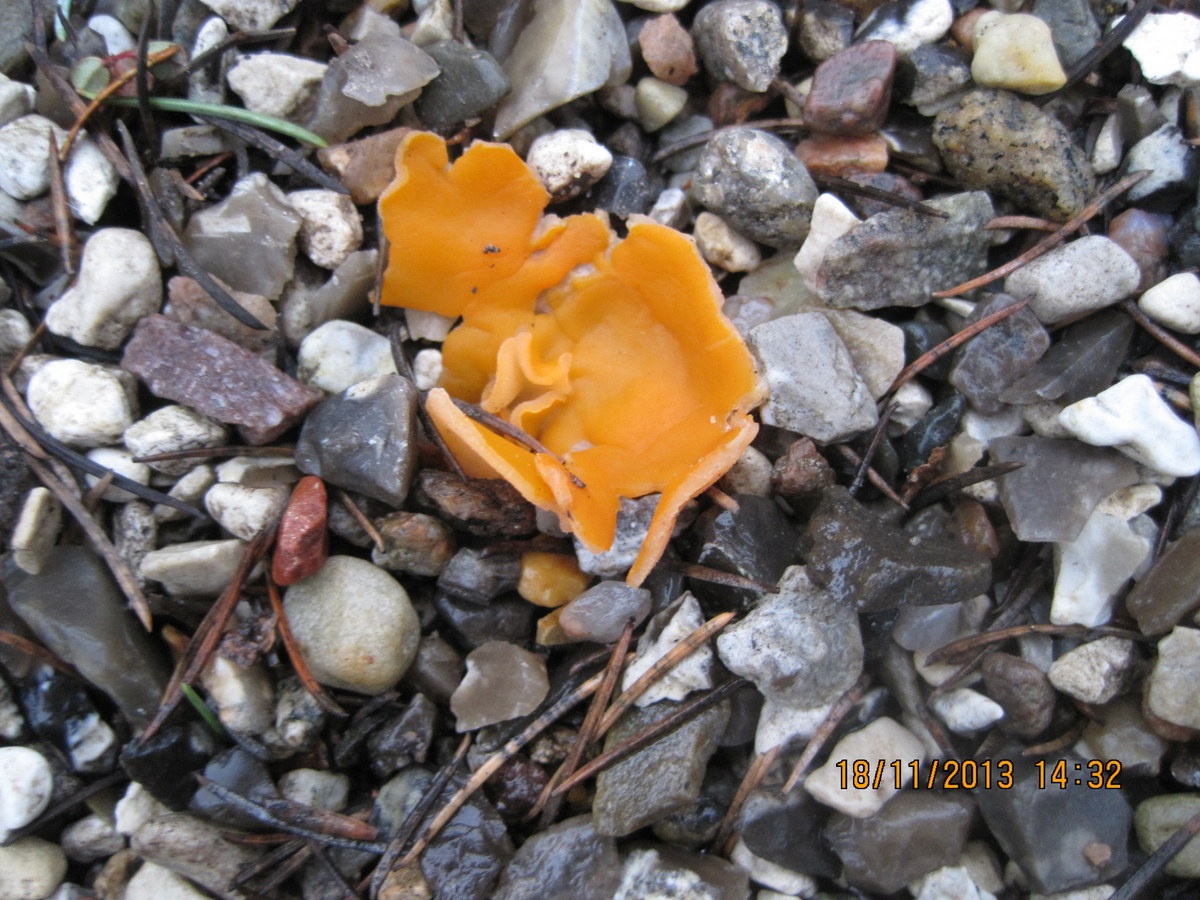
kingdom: Fungi
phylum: Ascomycota
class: Pezizomycetes
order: Pezizales
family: Pyronemataceae
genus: Aleuria
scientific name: Aleuria aurantia
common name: almindelig orangebæger
